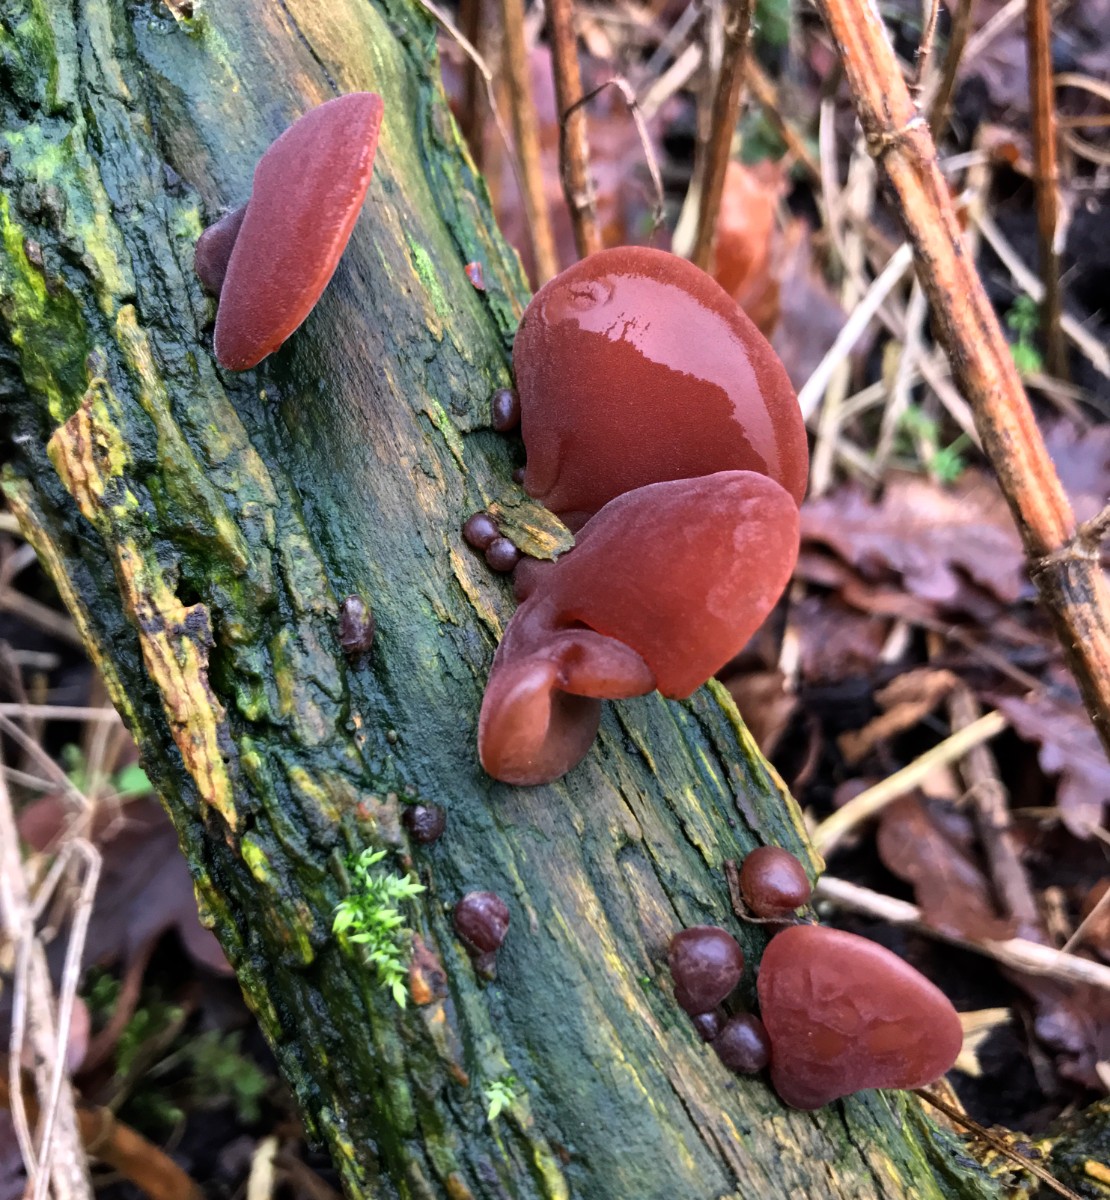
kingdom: Fungi
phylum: Basidiomycota
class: Agaricomycetes
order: Auriculariales
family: Auriculariaceae
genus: Auricularia
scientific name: Auricularia auricula-judae
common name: almindelig judasøre
